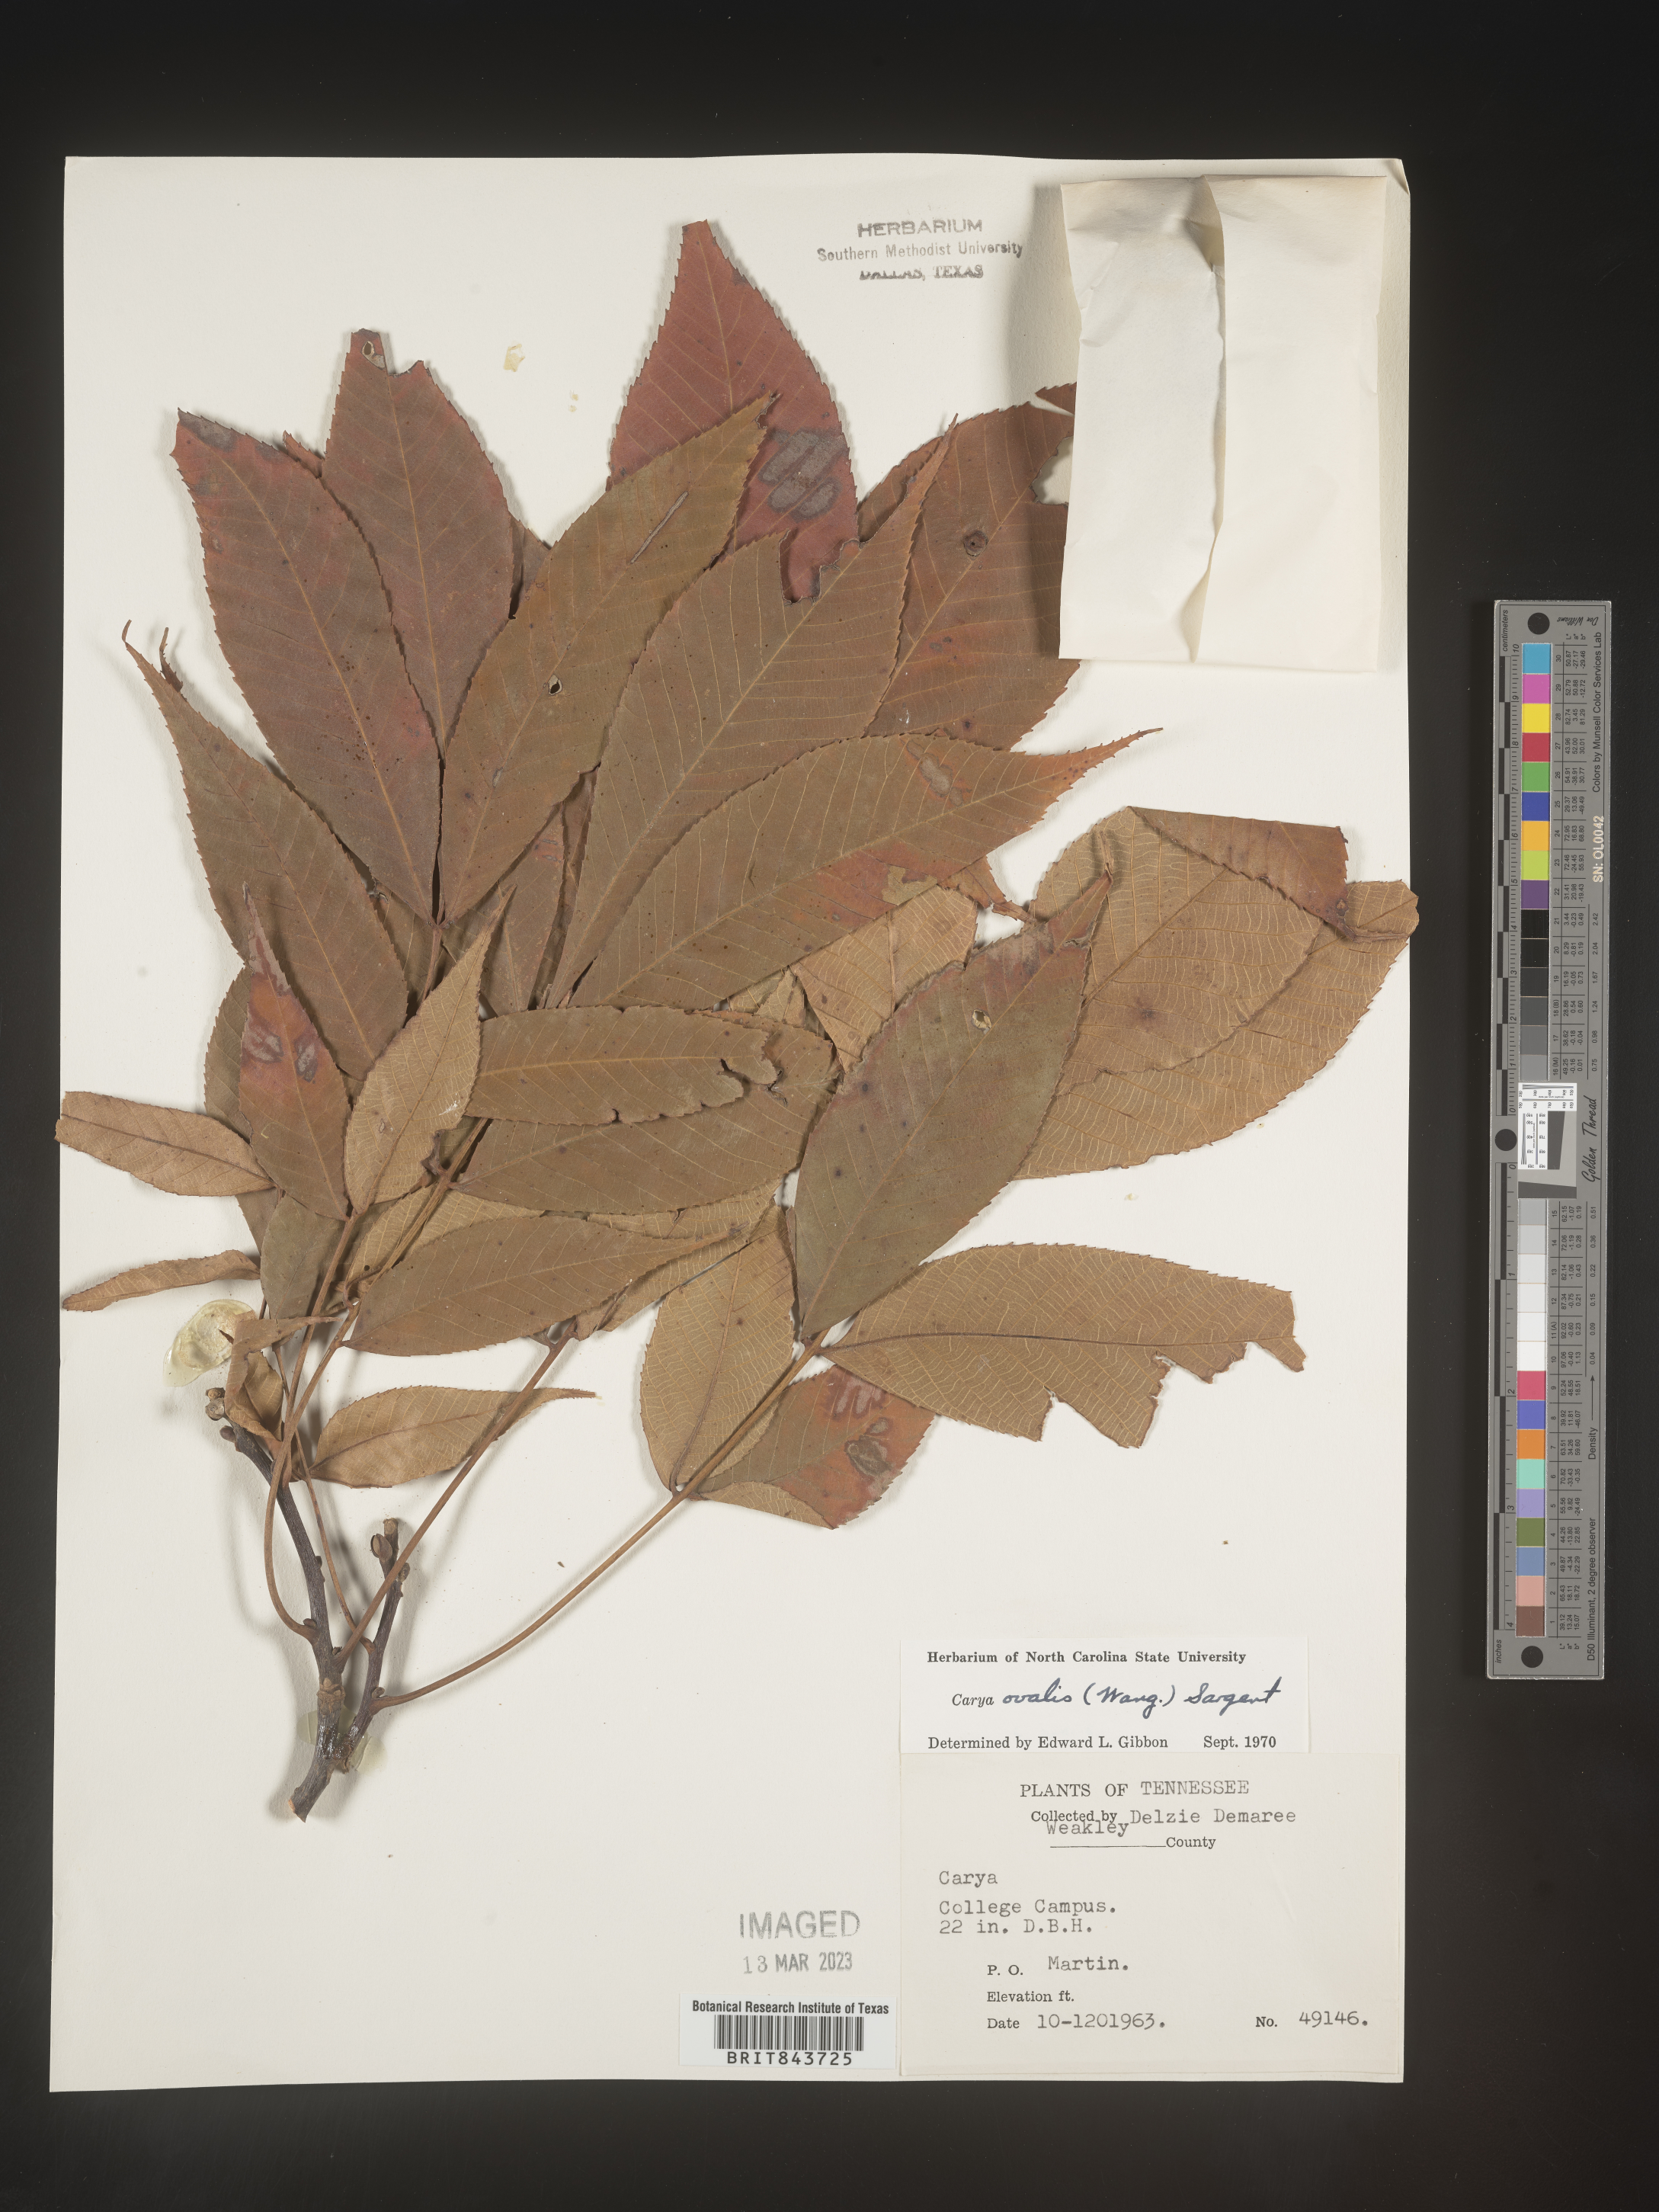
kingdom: Plantae
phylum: Tracheophyta
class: Magnoliopsida
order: Fagales
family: Juglandaceae
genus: Carya
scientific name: Carya ovalis
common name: False shagbark
